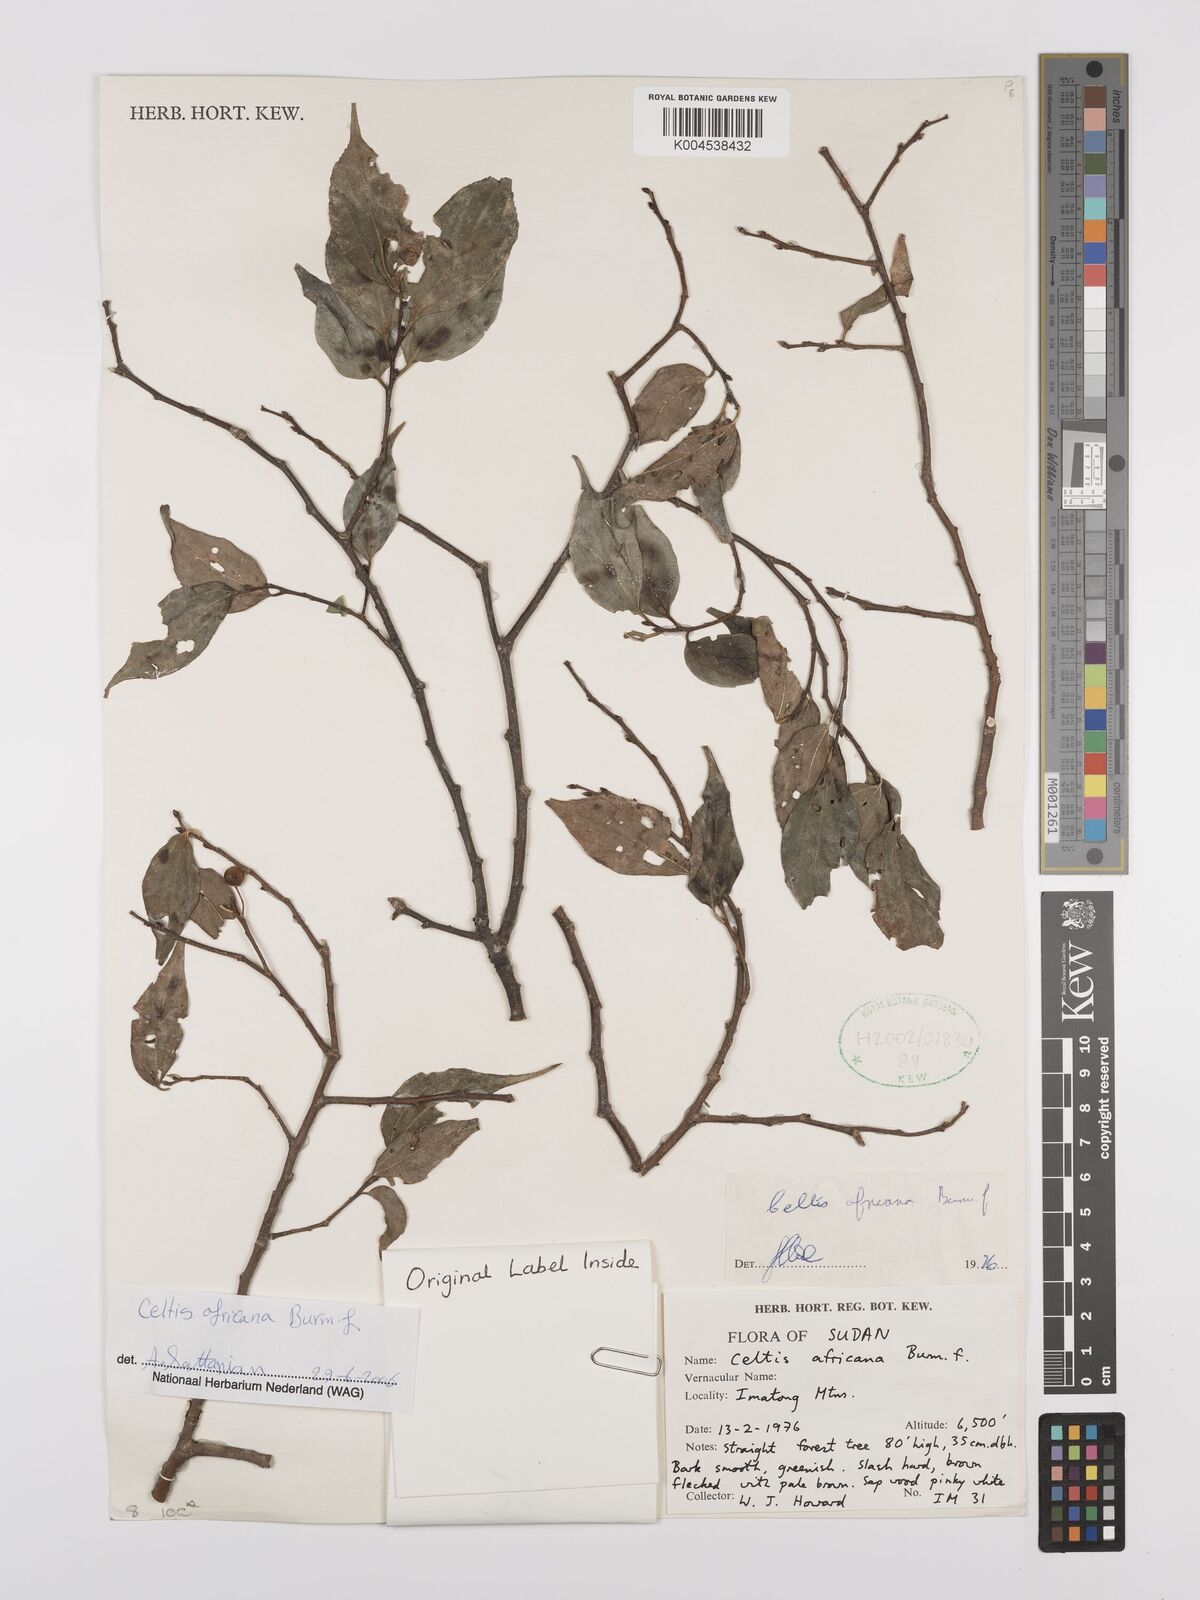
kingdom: Plantae
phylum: Tracheophyta
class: Magnoliopsida
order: Rosales
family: Cannabaceae
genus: Celtis
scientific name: Celtis africana
